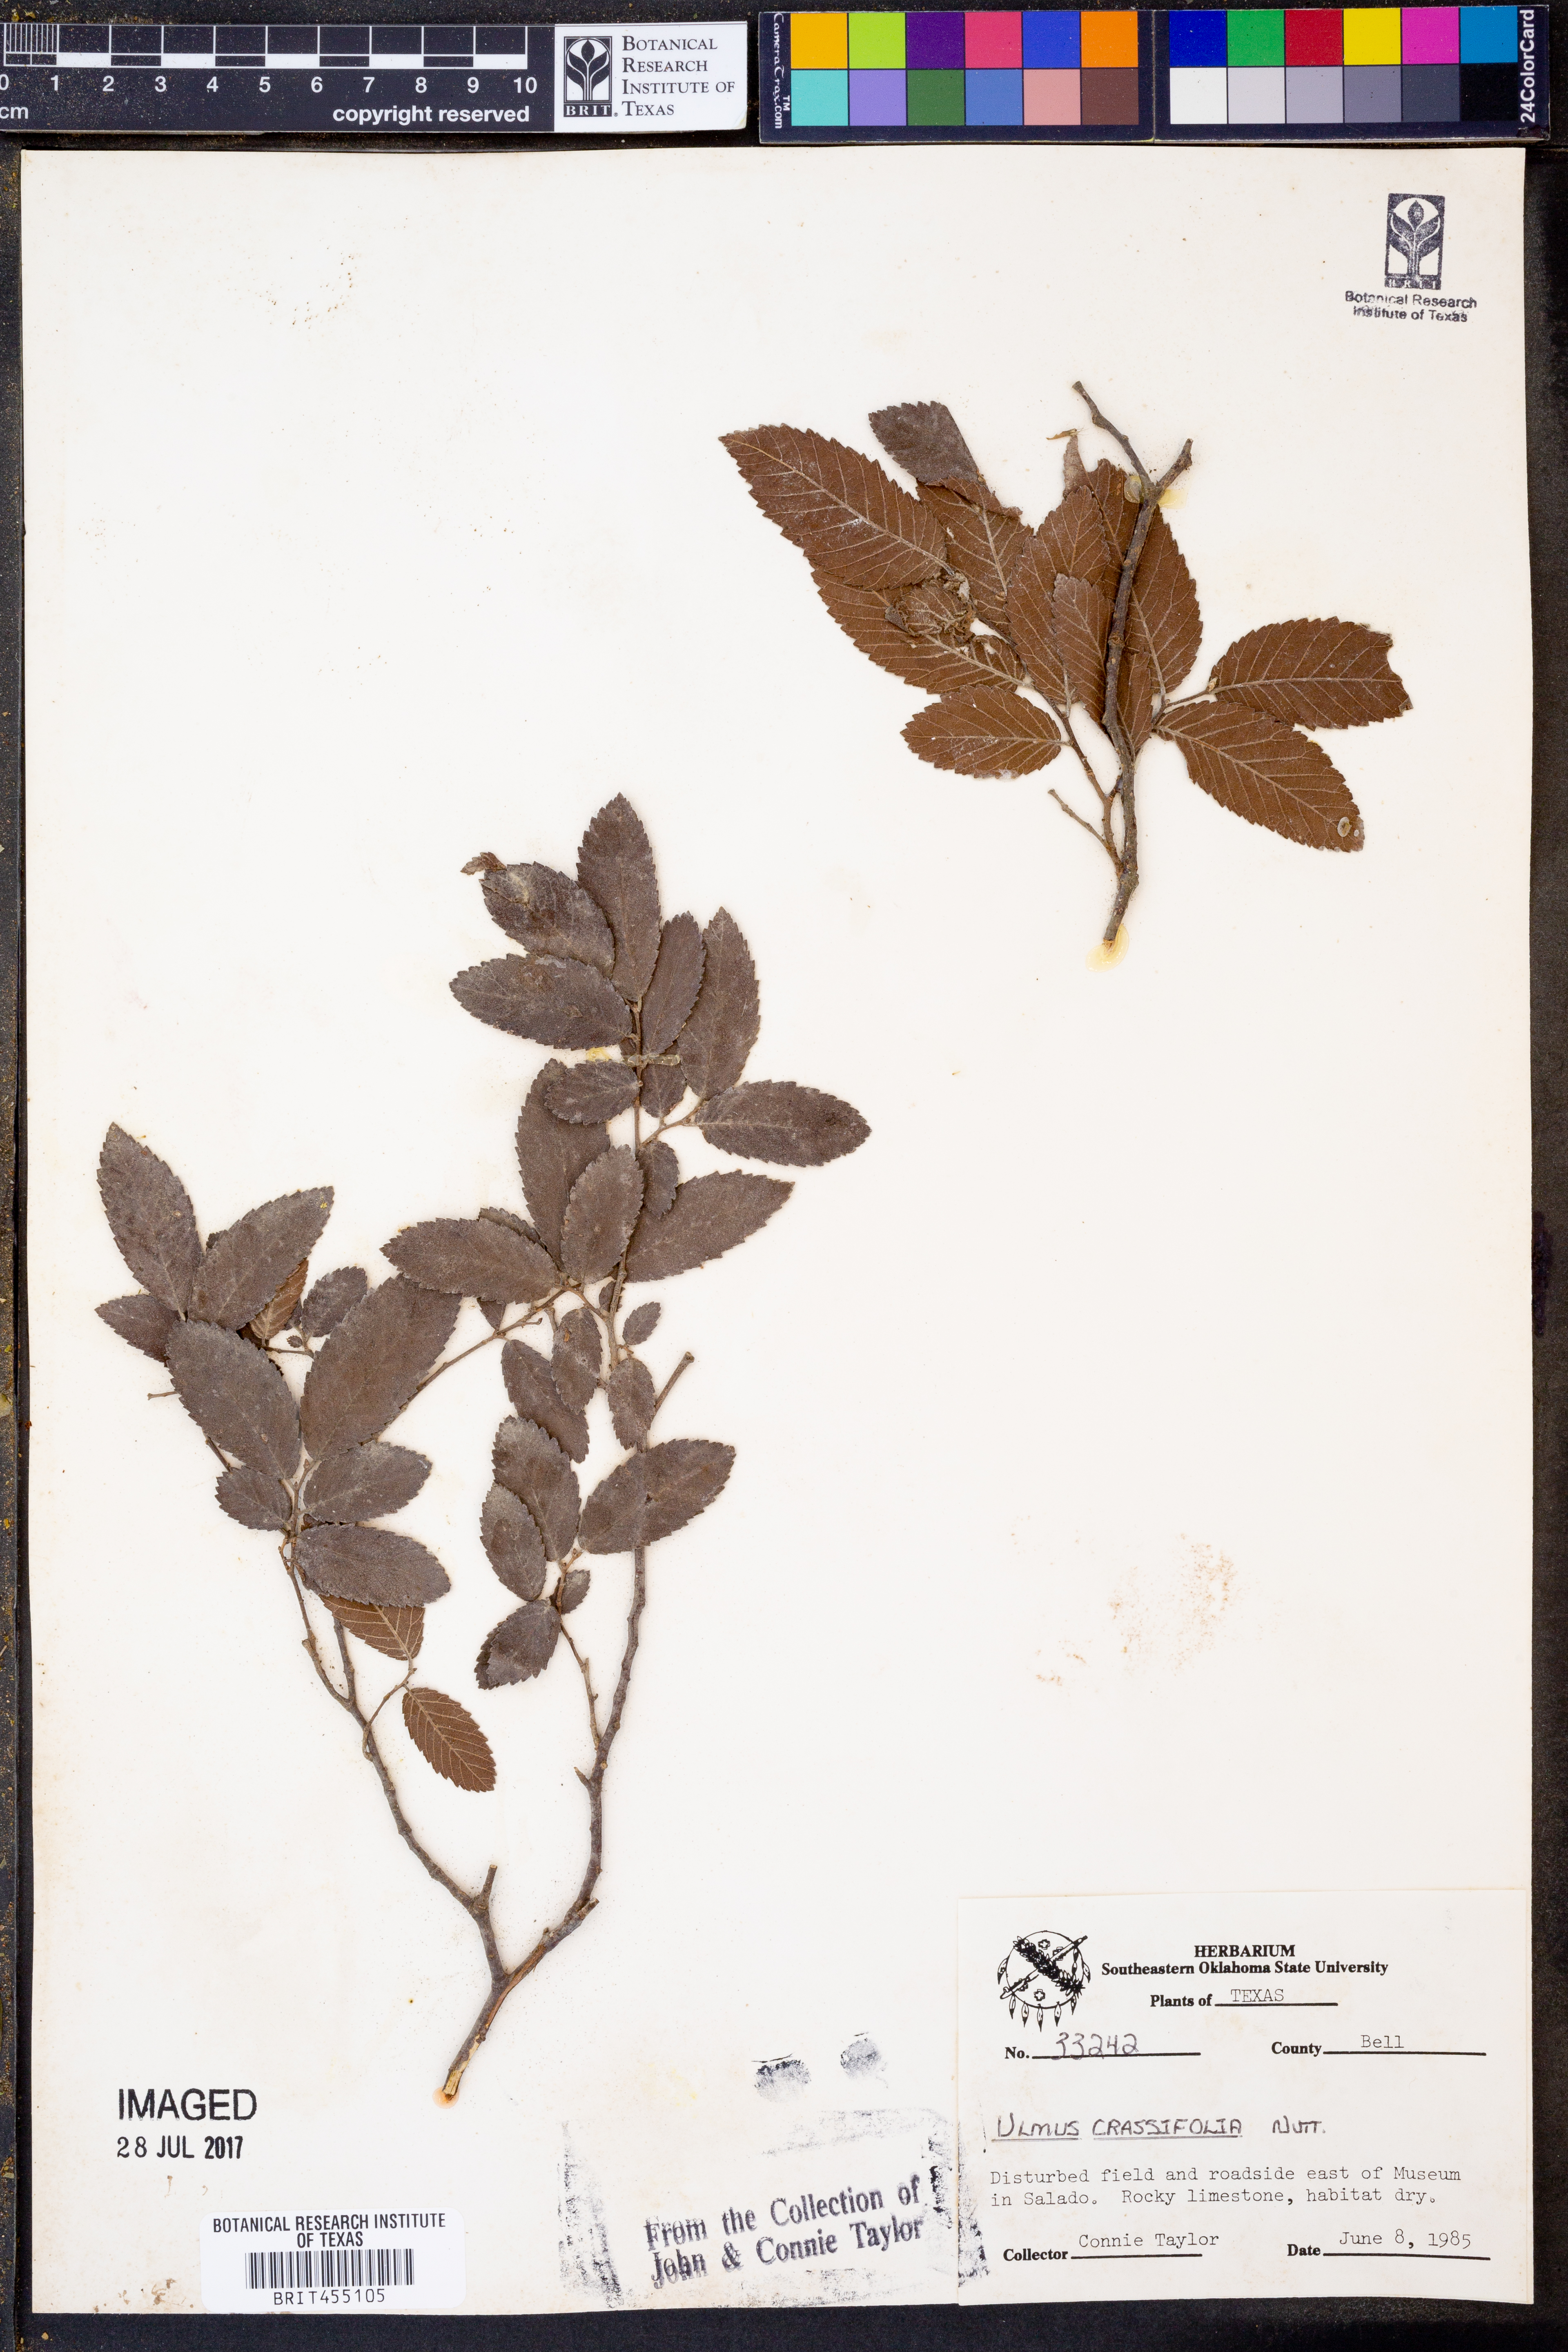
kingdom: Plantae
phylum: Tracheophyta
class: Magnoliopsida
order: Rosales
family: Ulmaceae
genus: Ulmus
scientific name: Ulmus crassifolia
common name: Basket elm
